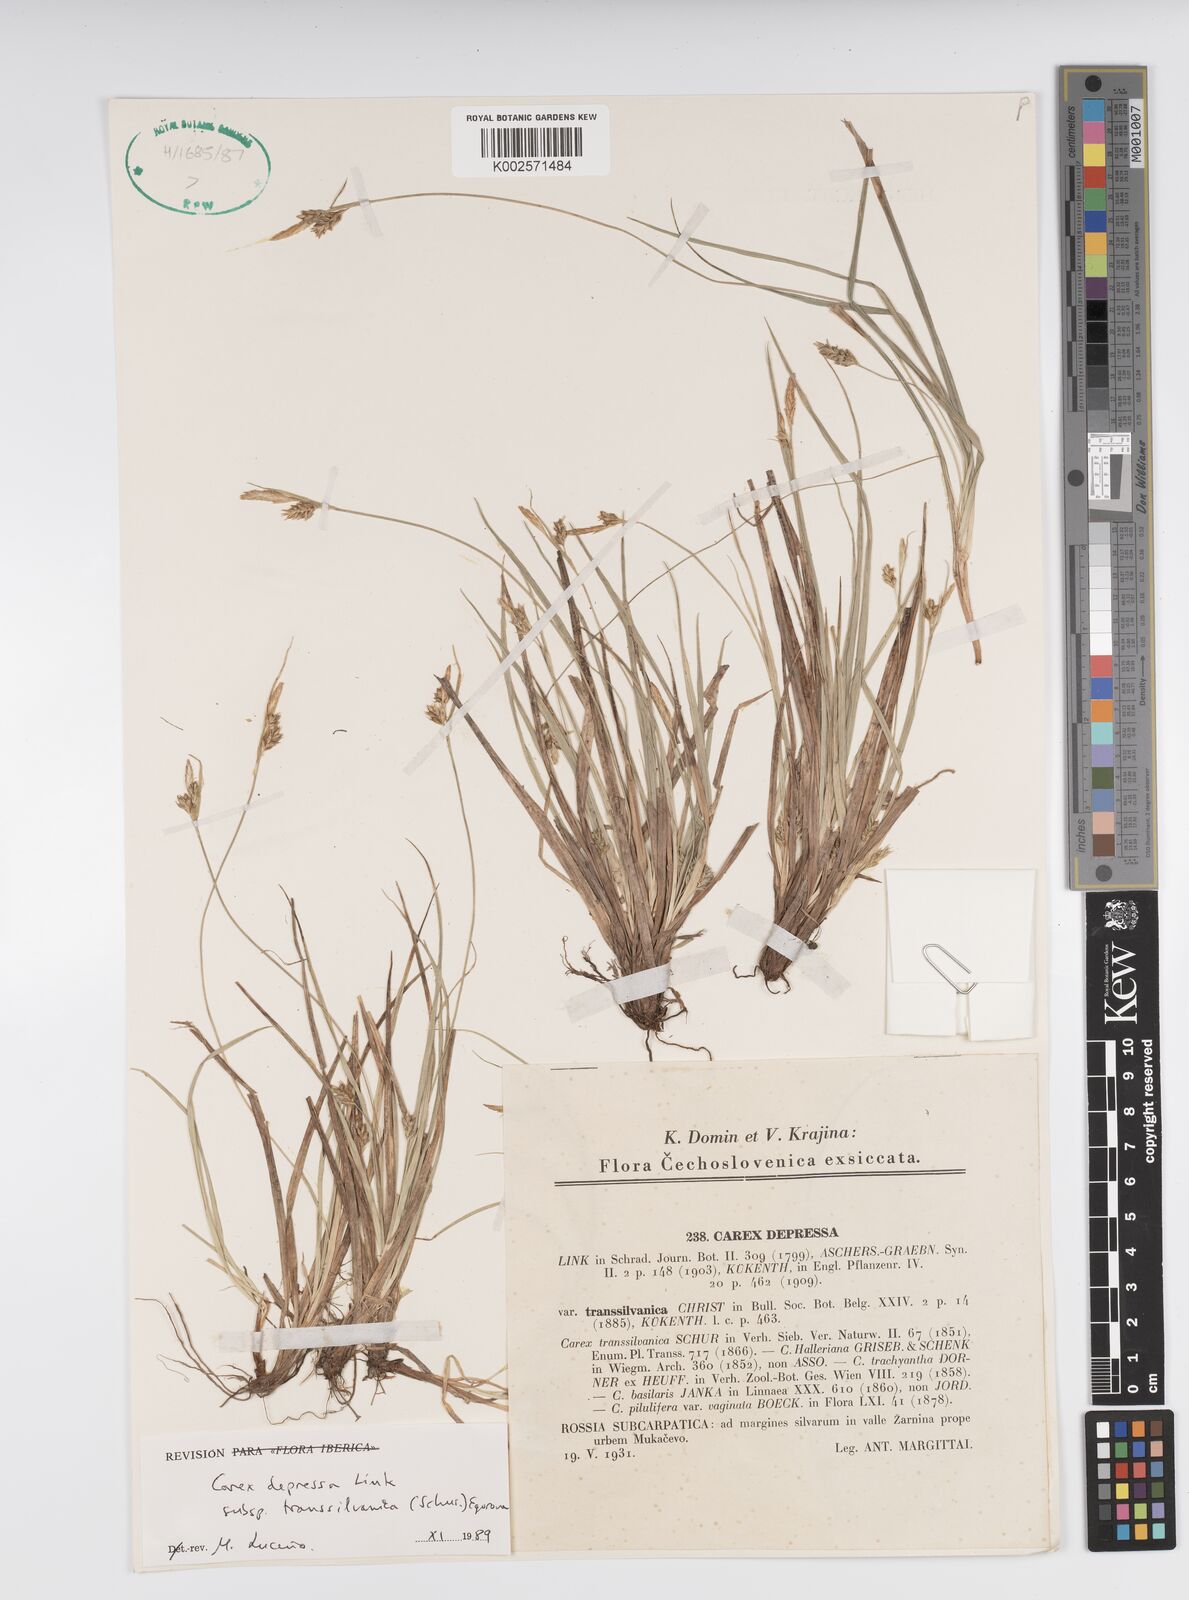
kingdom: Plantae
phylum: Tracheophyta
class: Liliopsida
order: Poales
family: Cyperaceae
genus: Carex
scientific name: Carex depressa
